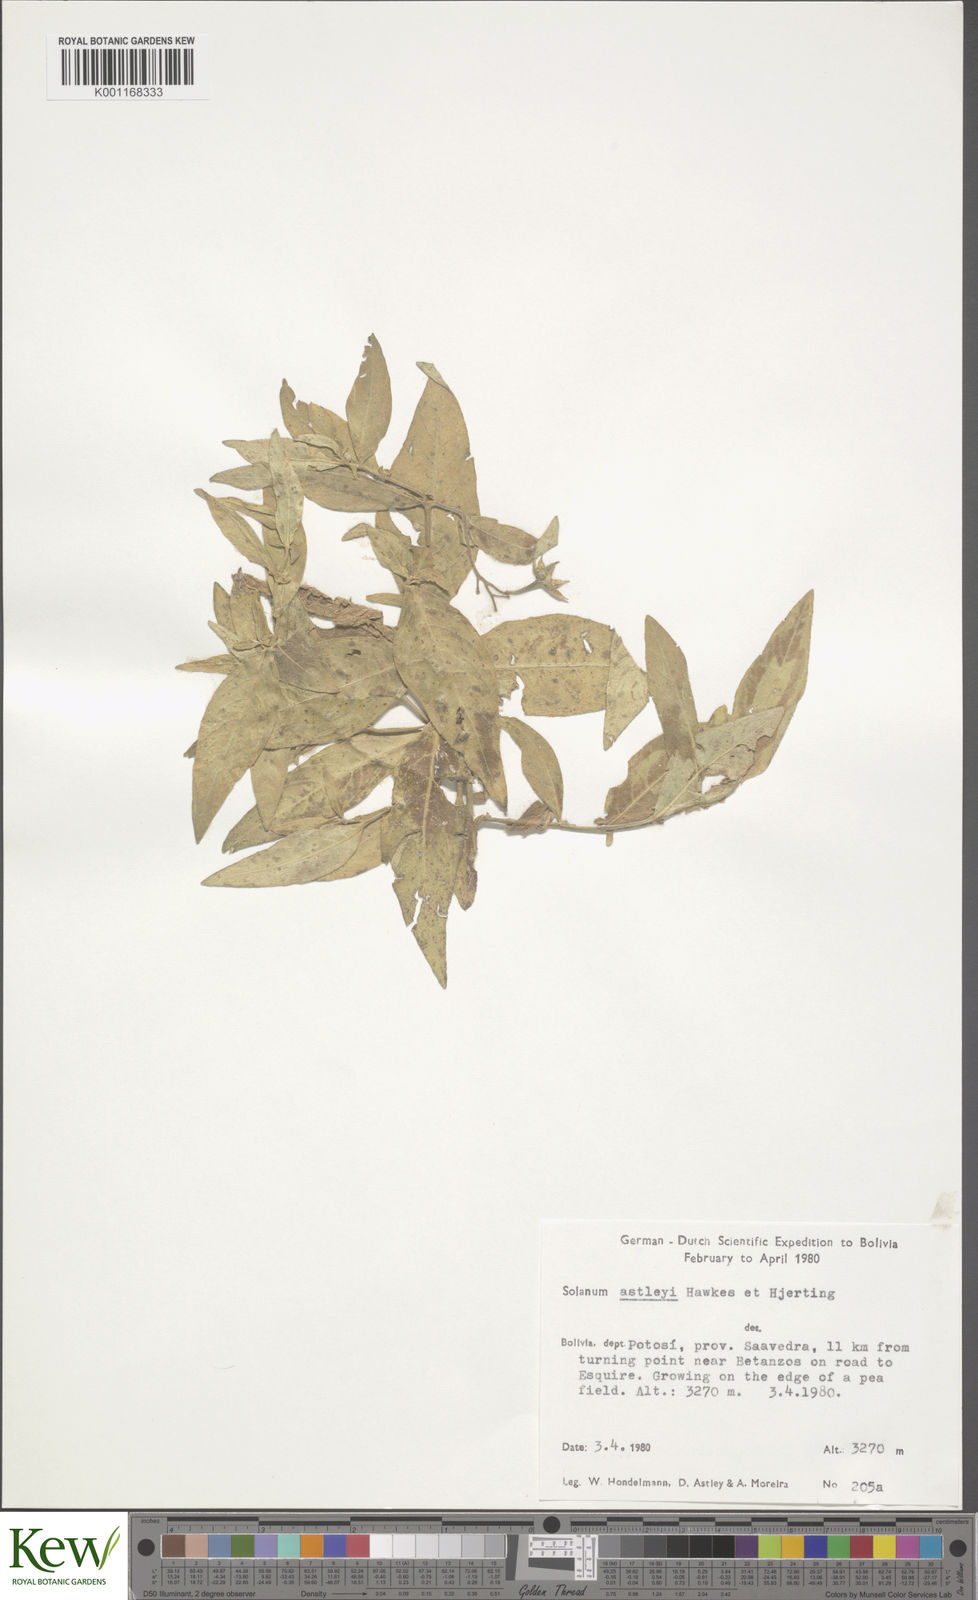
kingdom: Plantae
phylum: Tracheophyta
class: Magnoliopsida
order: Solanales
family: Solanaceae
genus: Solanum
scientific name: Solanum boliviense
